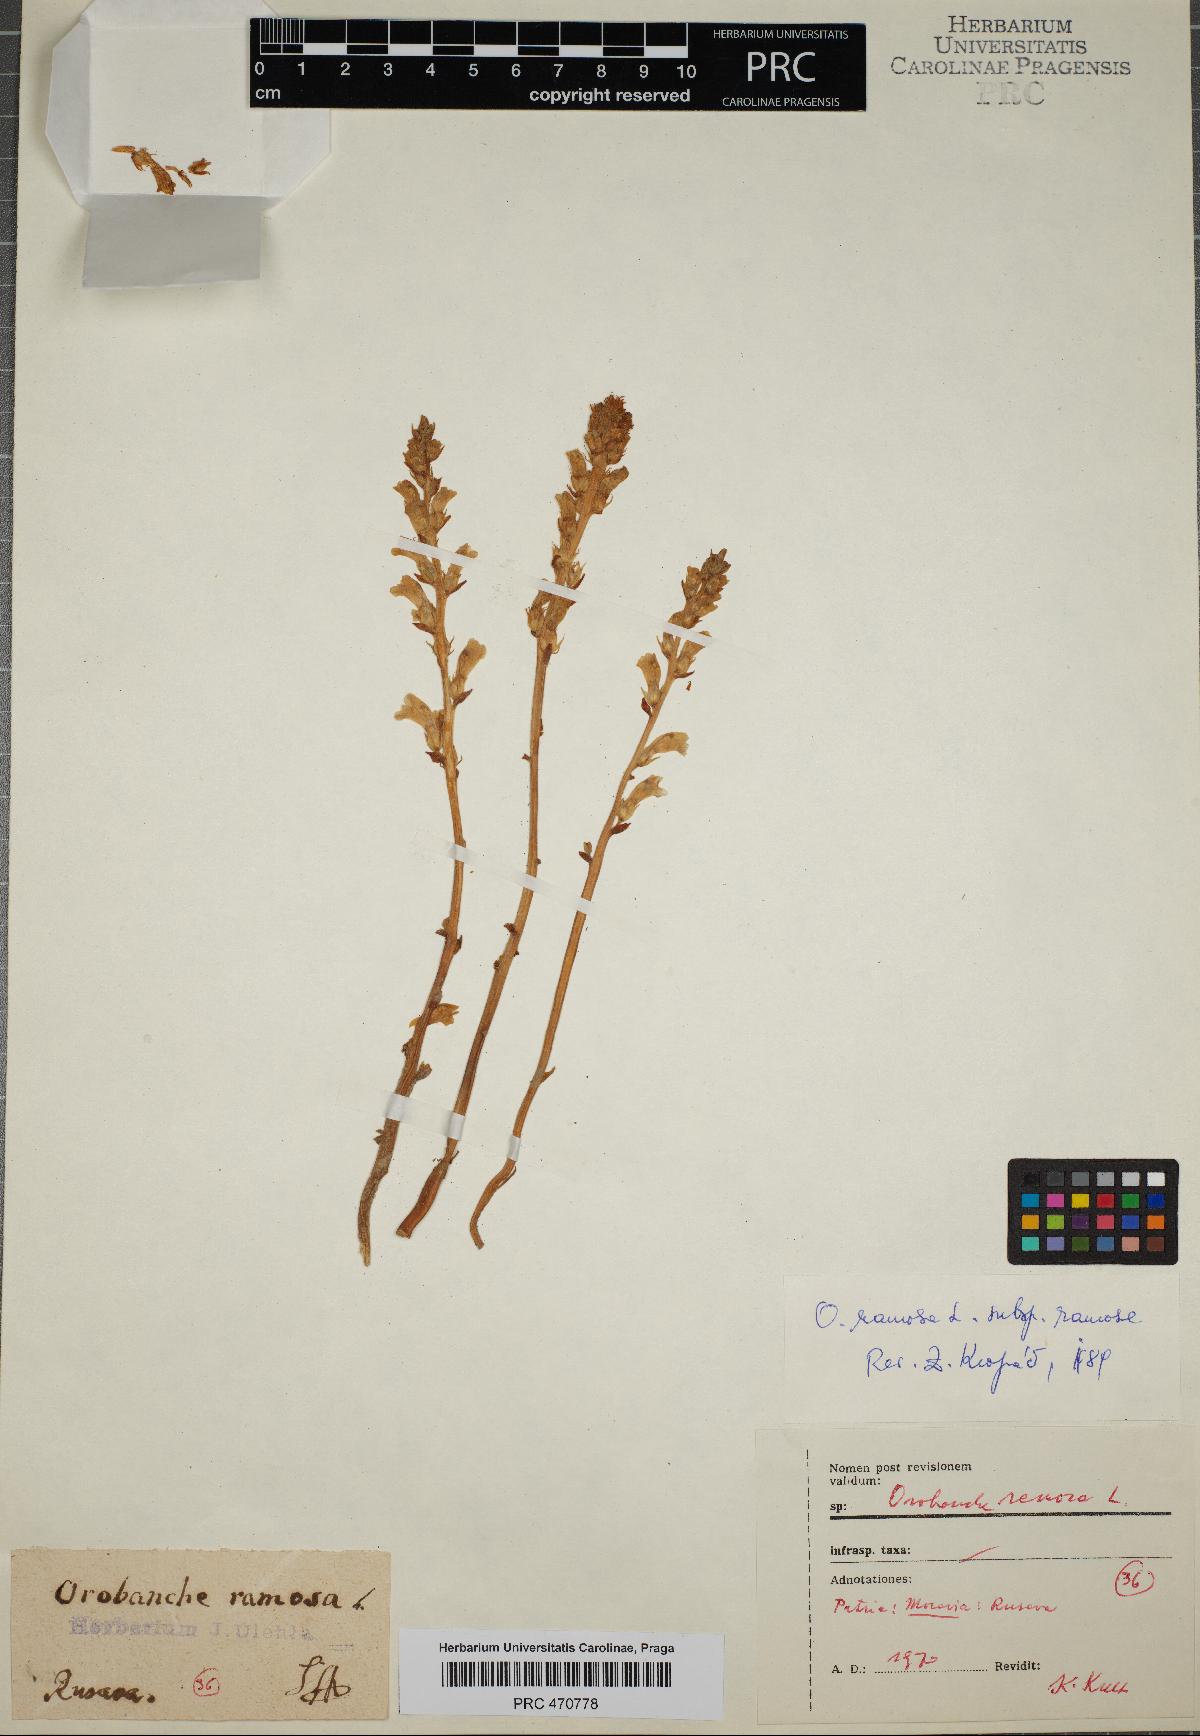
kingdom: Plantae
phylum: Tracheophyta
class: Magnoliopsida
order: Lamiales
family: Orobanchaceae
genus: Phelipanche
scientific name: Phelipanche ramosa
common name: Branched broomrape
